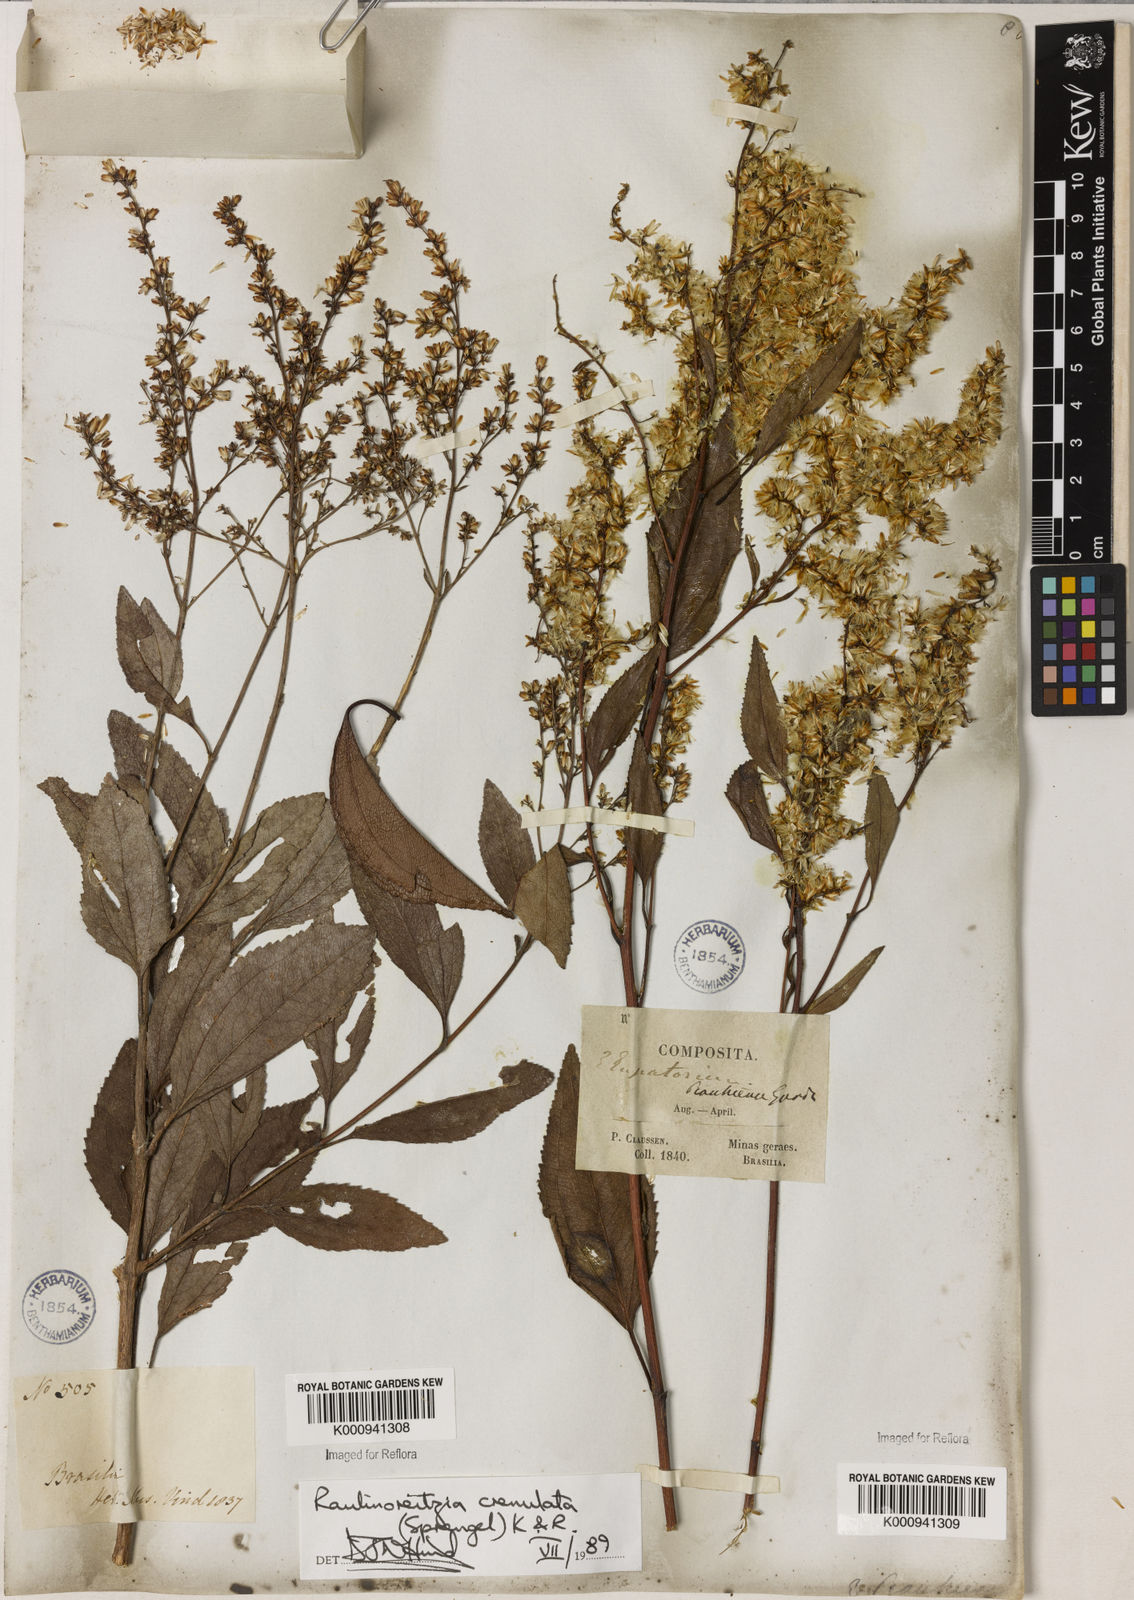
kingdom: Plantae
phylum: Tracheophyta
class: Magnoliopsida
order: Asterales
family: Asteraceae
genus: Raulinoreitzia
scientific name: Raulinoreitzia crenulata
